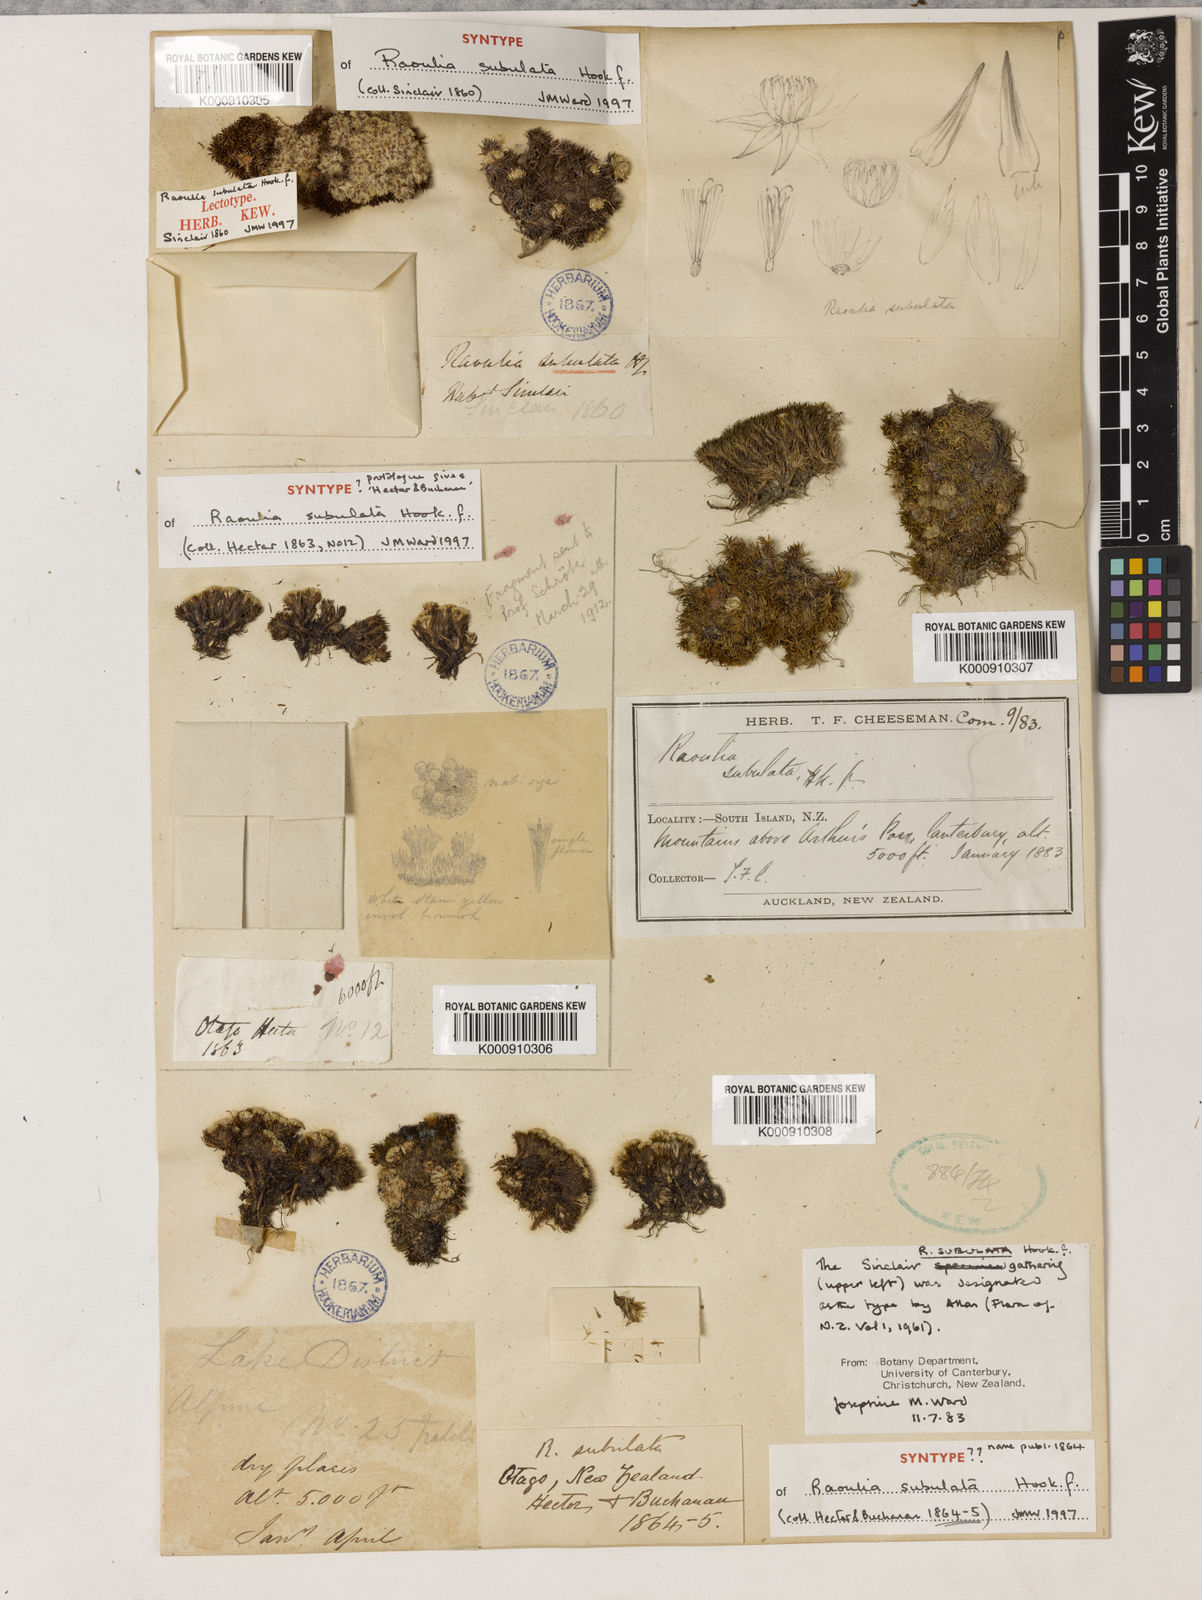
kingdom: Plantae
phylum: Tracheophyta
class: Magnoliopsida
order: Asterales
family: Asteraceae
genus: Raoulia
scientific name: Raoulia subulata
